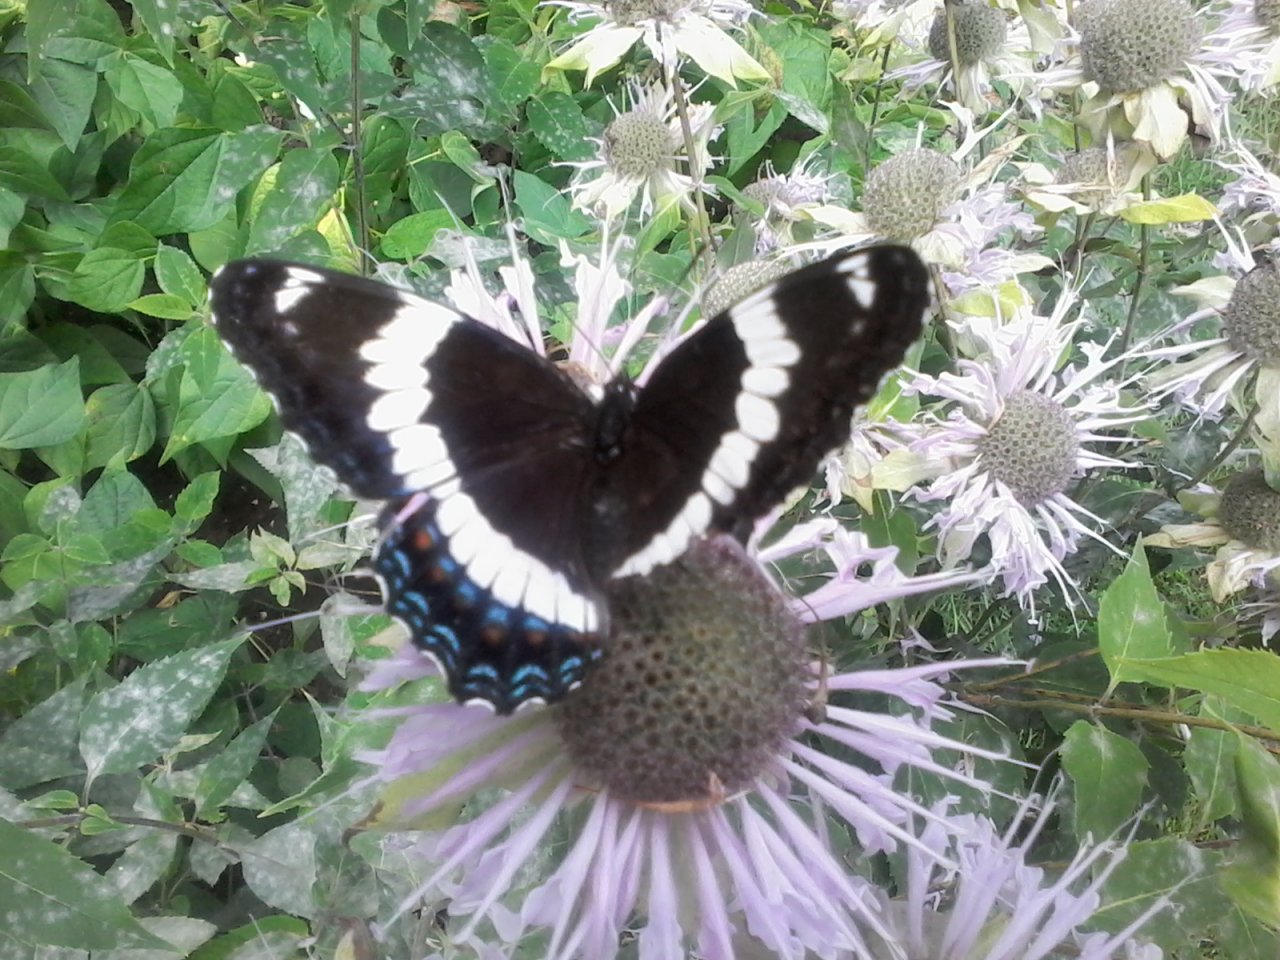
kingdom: Animalia
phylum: Arthropoda
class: Insecta
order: Lepidoptera
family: Nymphalidae
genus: Limenitis
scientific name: Limenitis arthemis
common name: Red-spotted Admiral
